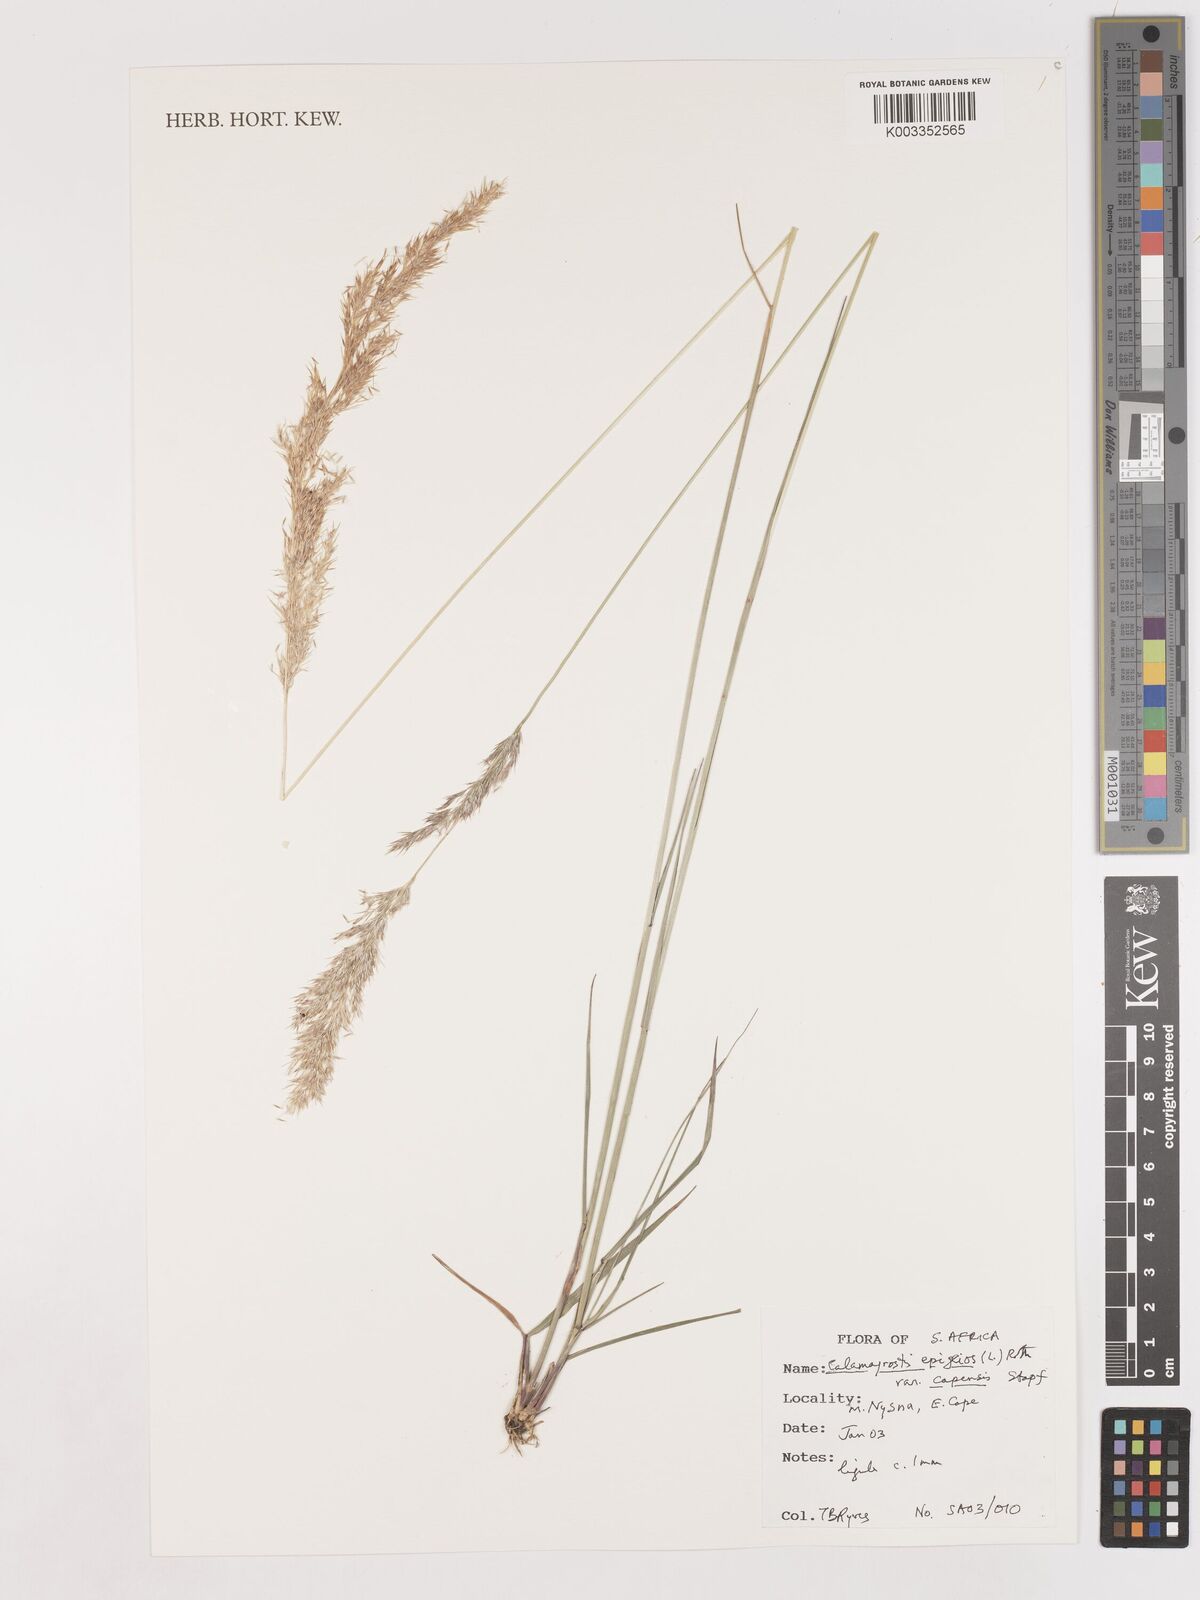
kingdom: Plantae
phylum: Tracheophyta
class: Liliopsida
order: Poales
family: Poaceae
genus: Calamagrostis
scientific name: Calamagrostis epigejos
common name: Wood small-reed
